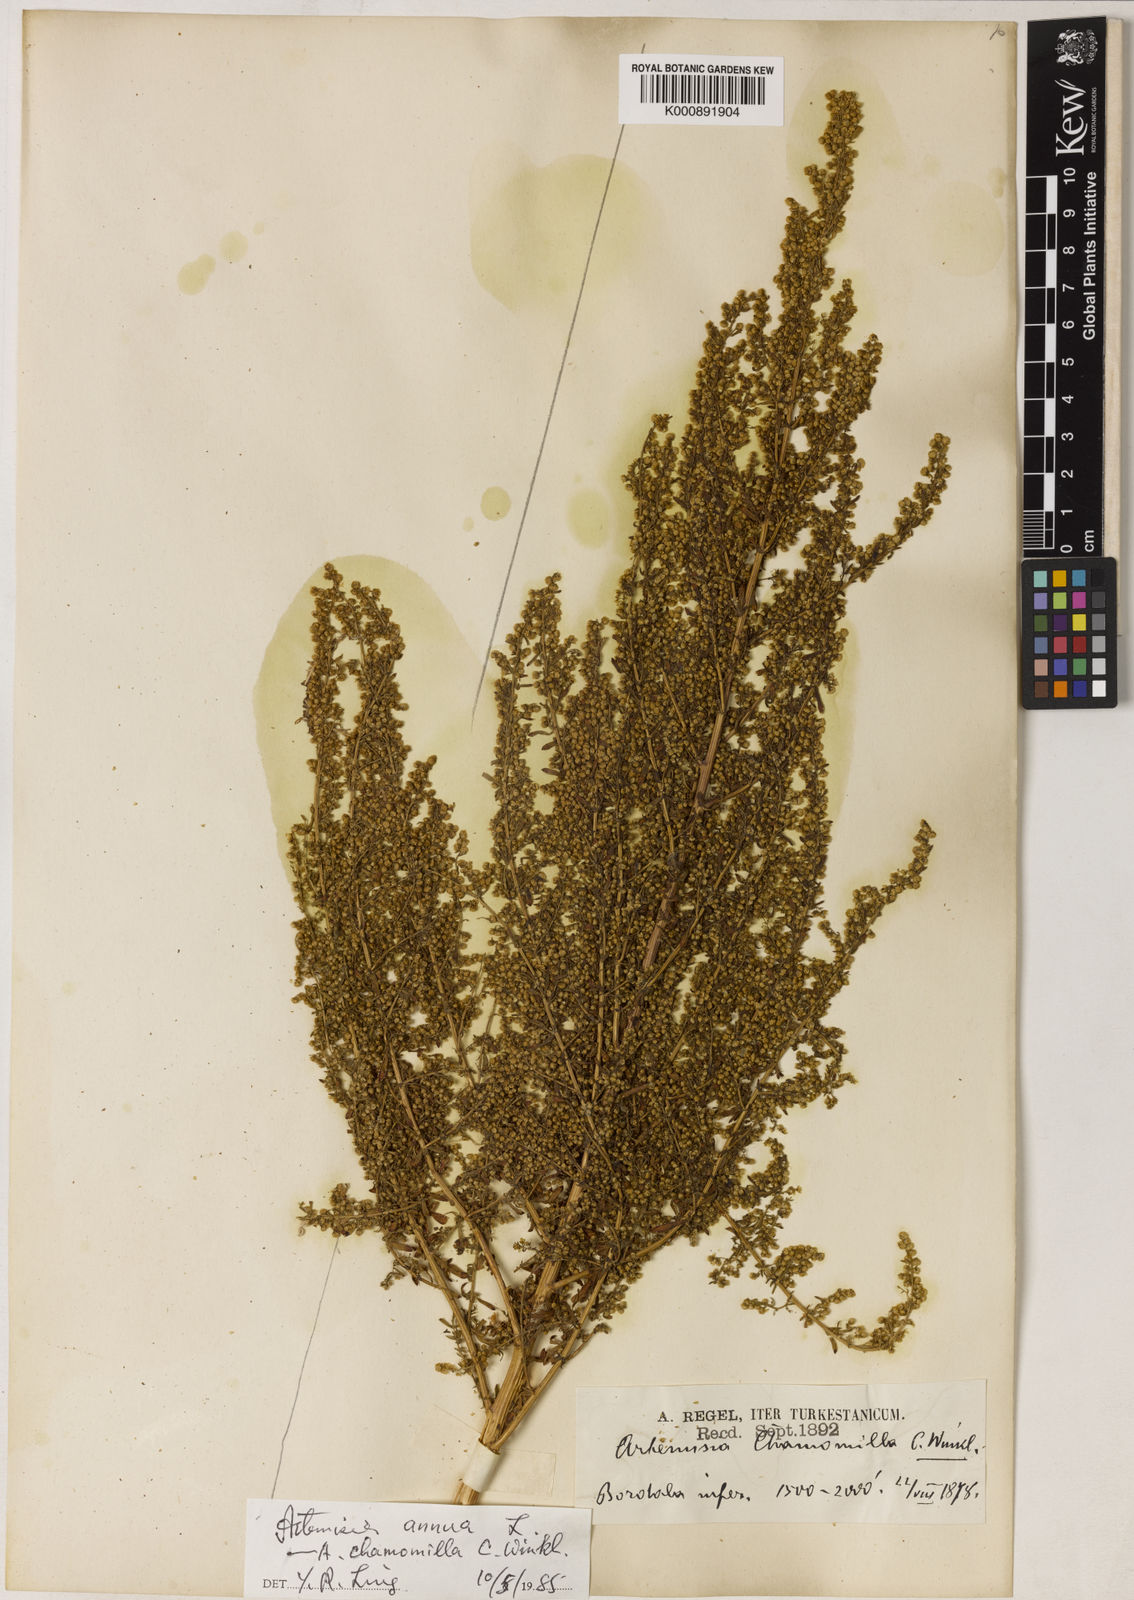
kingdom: Plantae
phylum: Tracheophyta
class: Magnoliopsida
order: Asterales
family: Asteraceae
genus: Artemisia
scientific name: Artemisia annua
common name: Sweet sagewort
